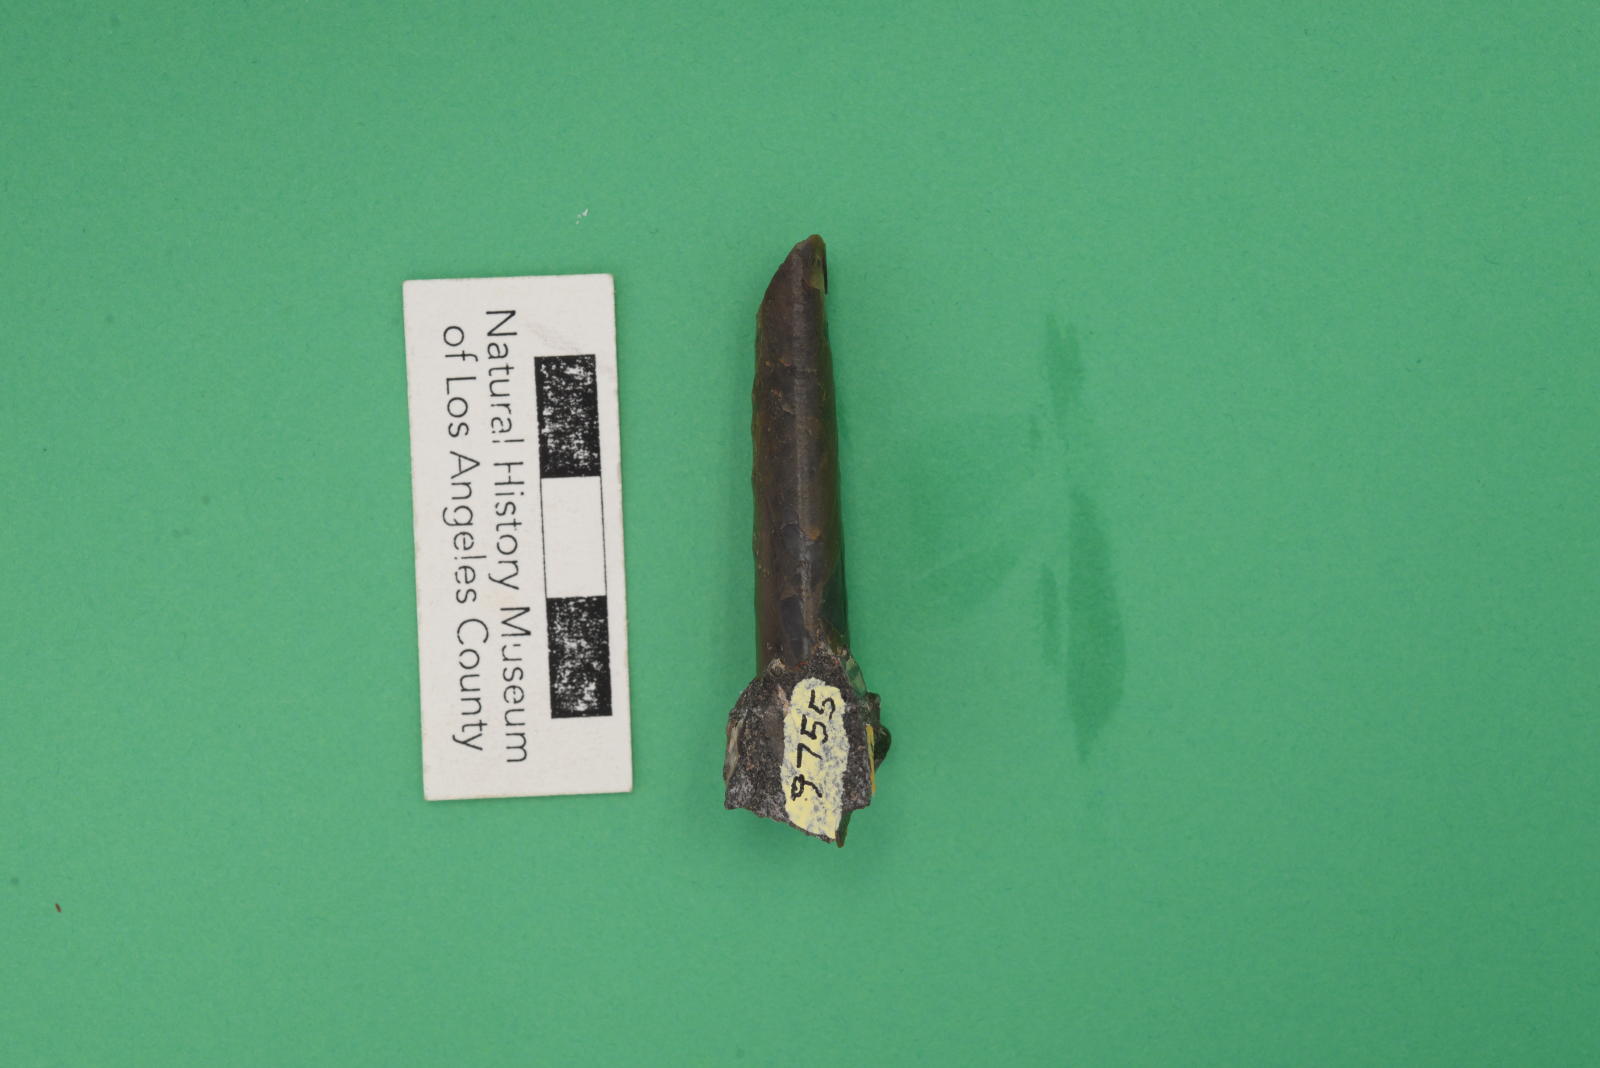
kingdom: Animalia
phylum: Mollusca
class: Cephalopoda
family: Baculitidae
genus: Baculites
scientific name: Baculites schencki
